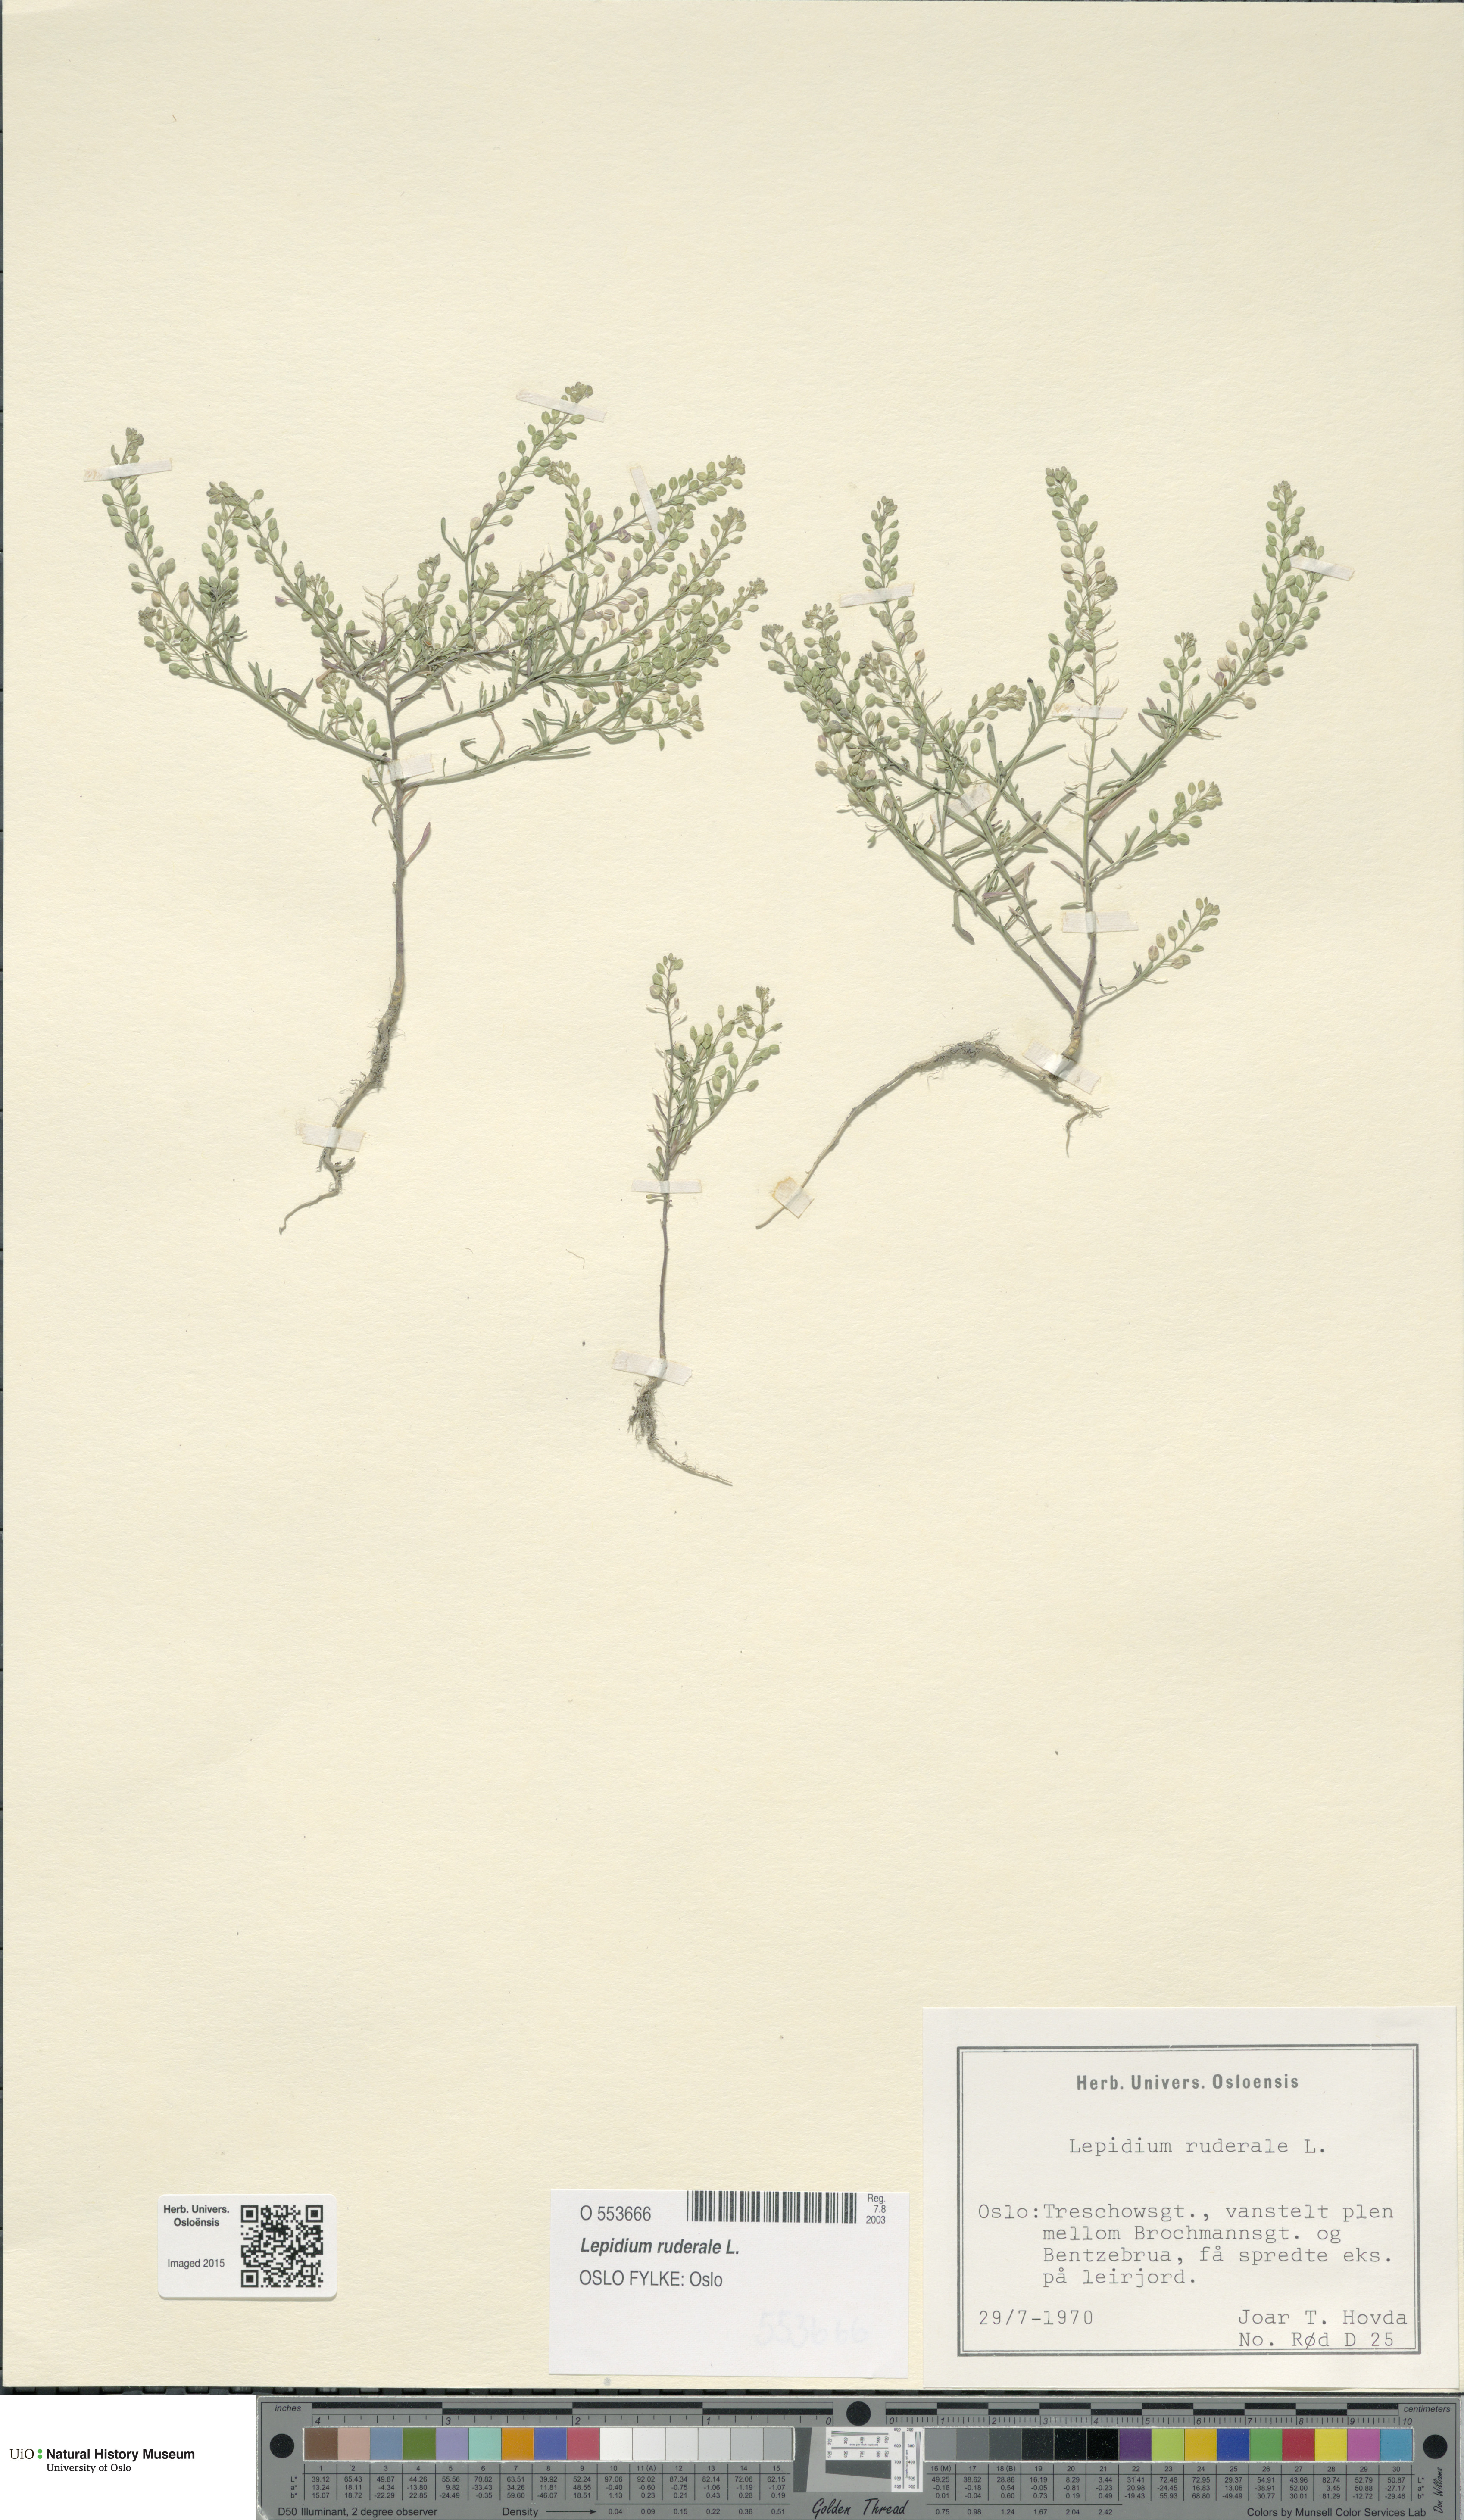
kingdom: Plantae
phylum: Tracheophyta
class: Magnoliopsida
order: Brassicales
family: Brassicaceae
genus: Lepidium
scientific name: Lepidium ruderale
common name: Narrow-leaved pepperwort
